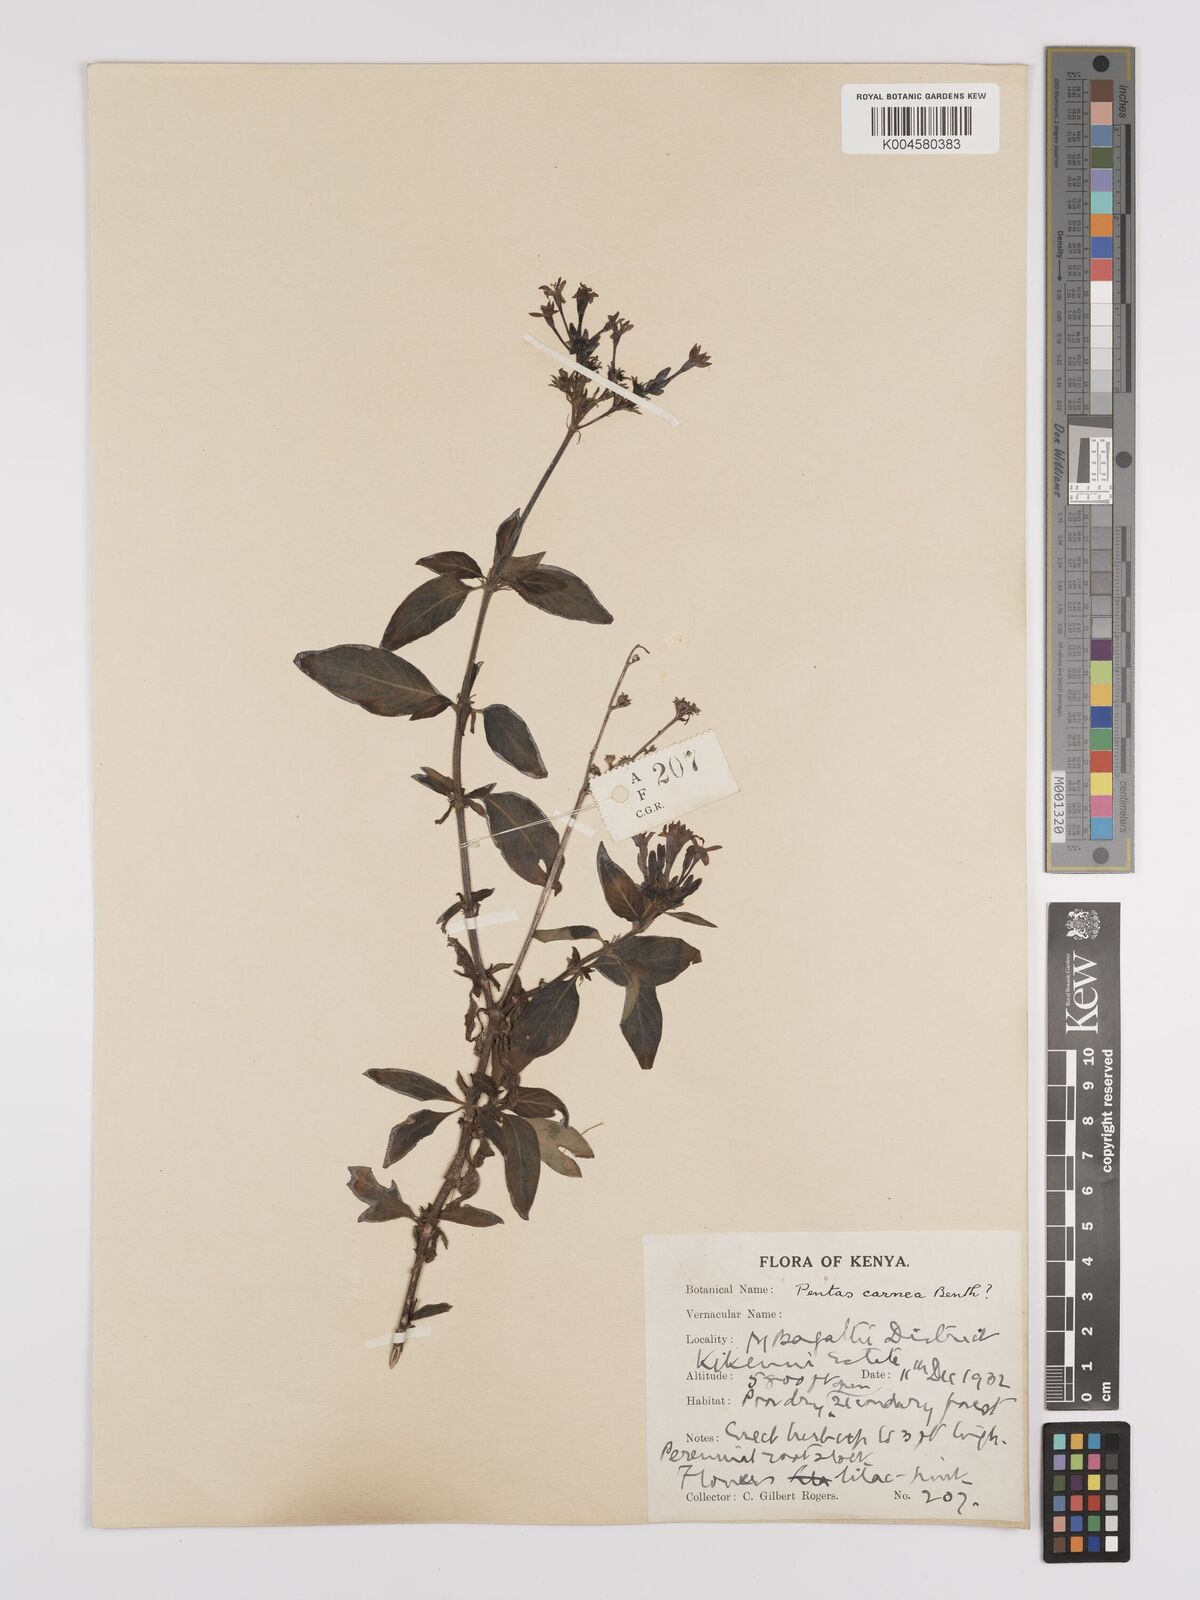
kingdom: Plantae
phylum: Tracheophyta
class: Magnoliopsida
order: Gentianales
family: Rubiaceae
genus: Pentas
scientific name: Pentas lanceolata
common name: Egyptian starcluster
